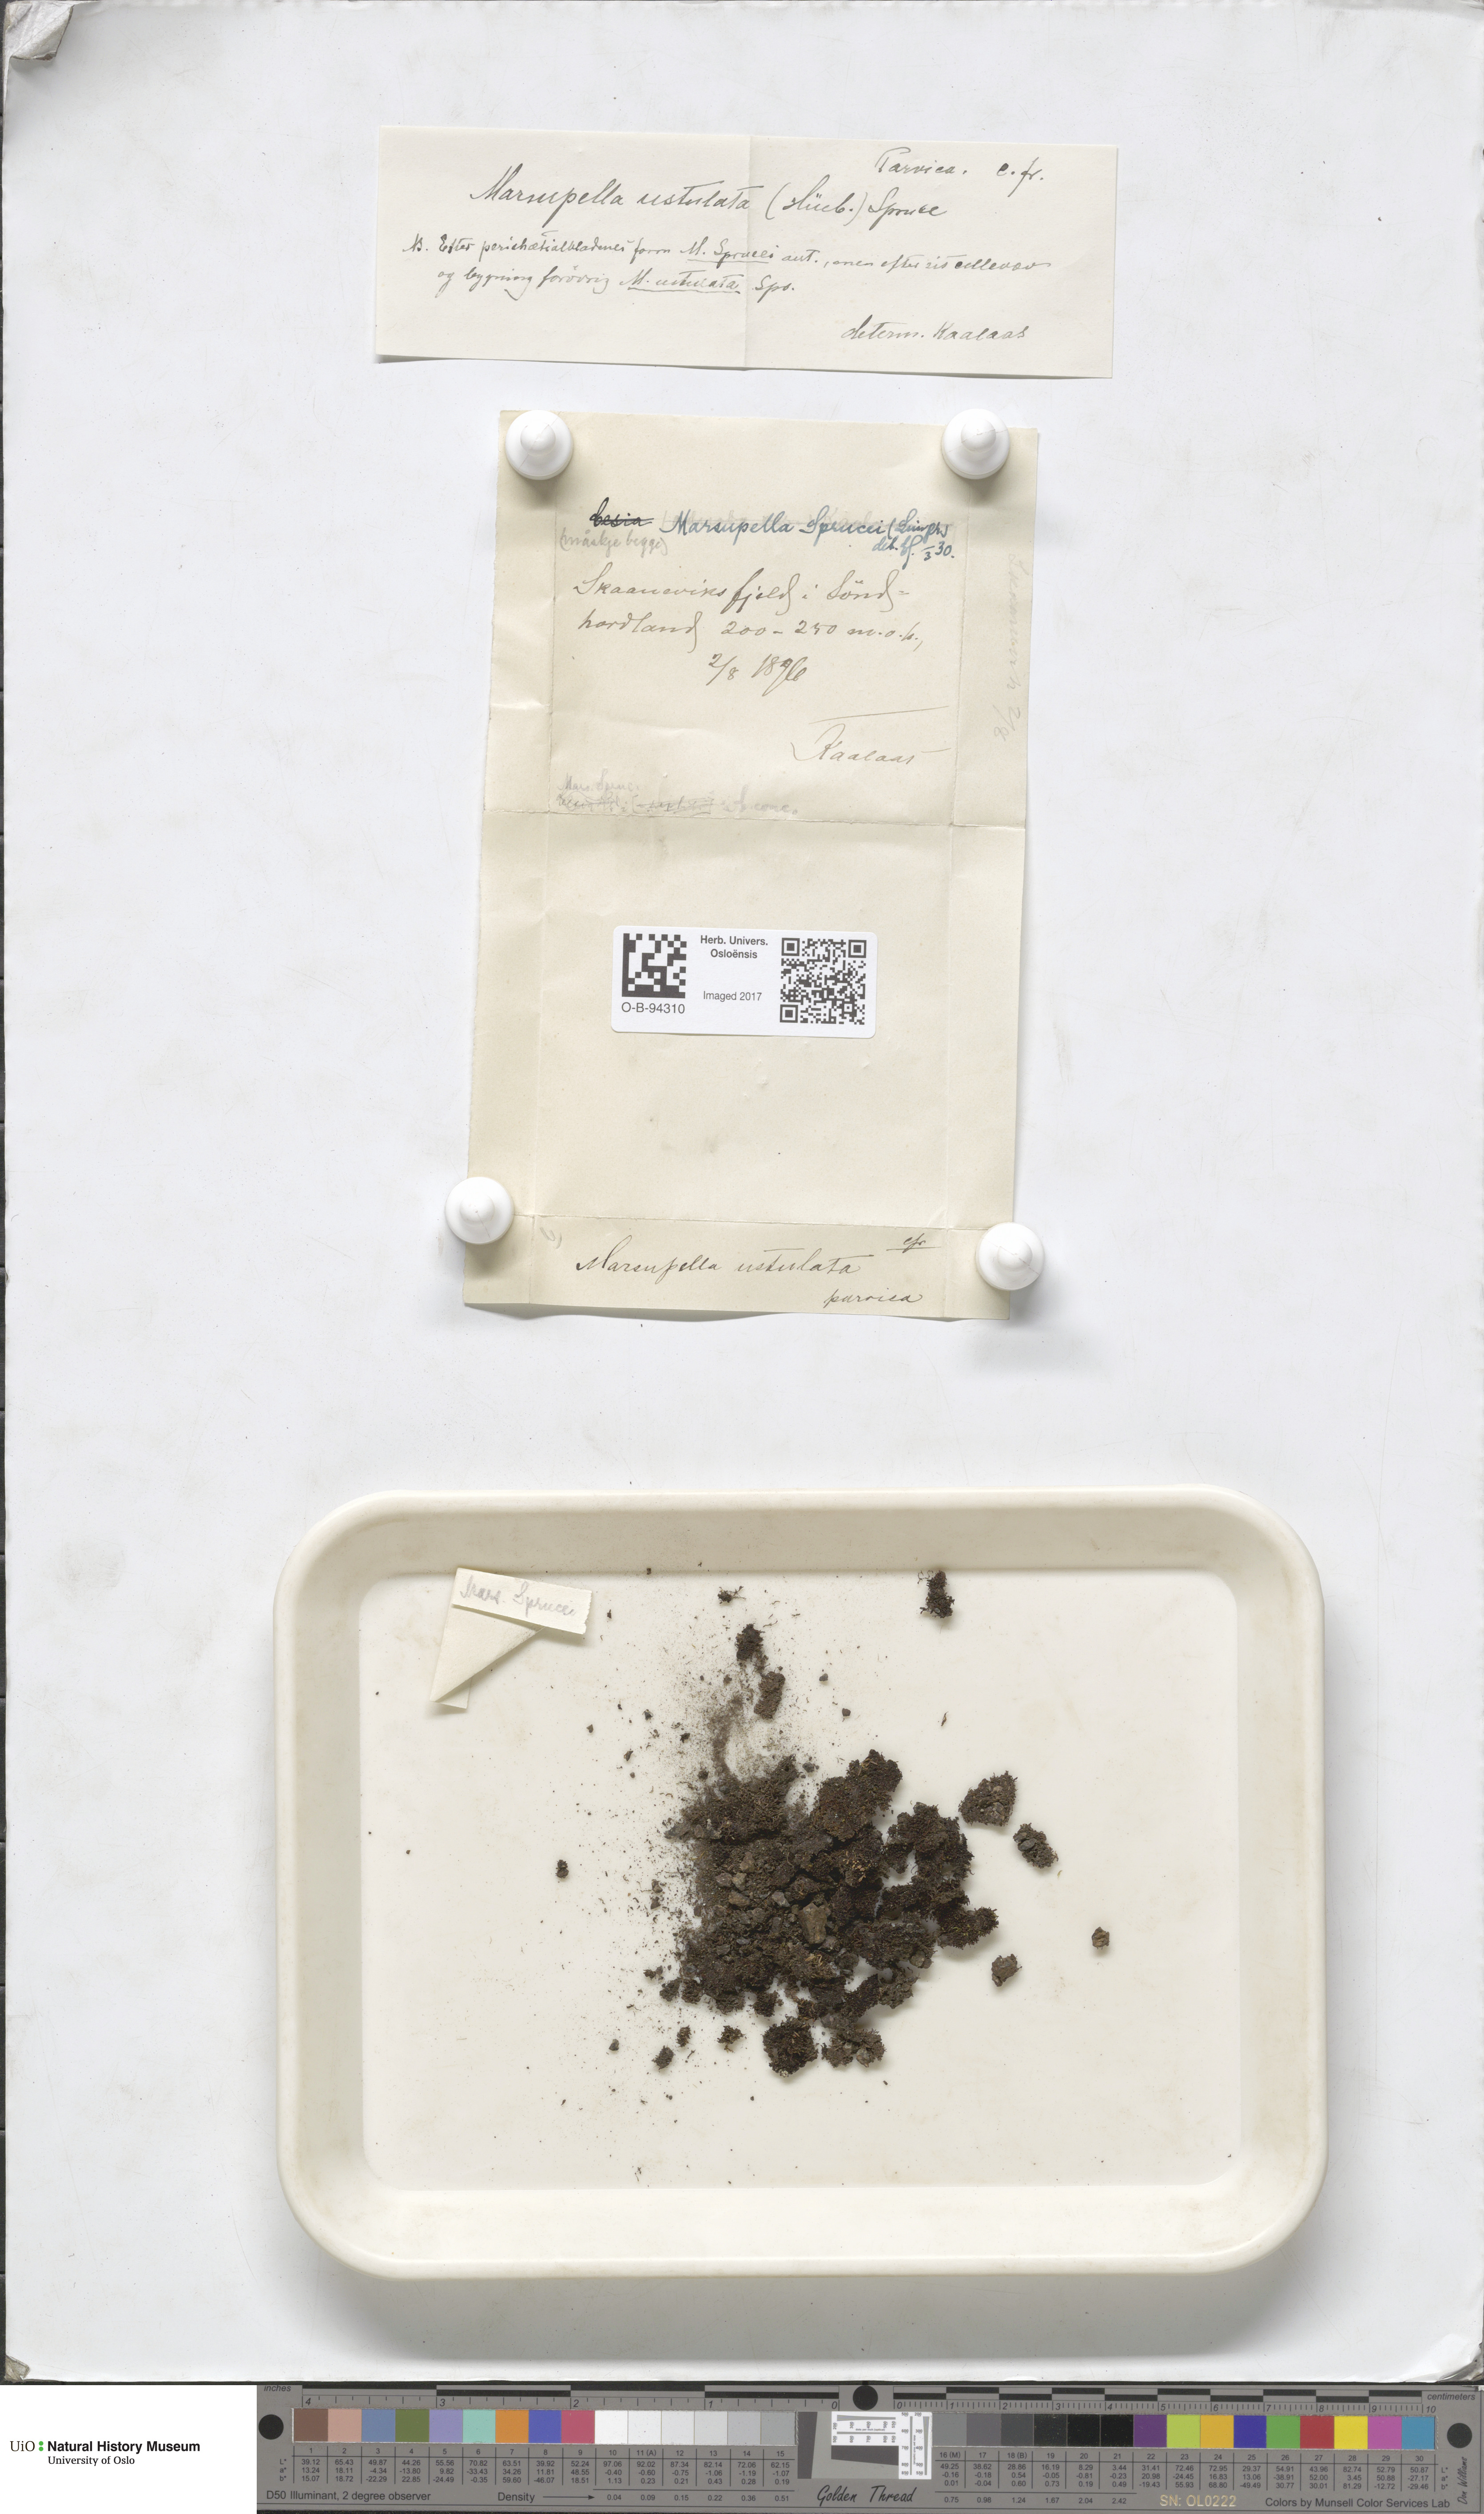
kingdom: Plantae
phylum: Marchantiophyta
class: Jungermanniopsida
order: Jungermanniales
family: Gymnomitriaceae
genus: Marsupella
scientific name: Marsupella sprucei
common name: Spruce s rustwort
